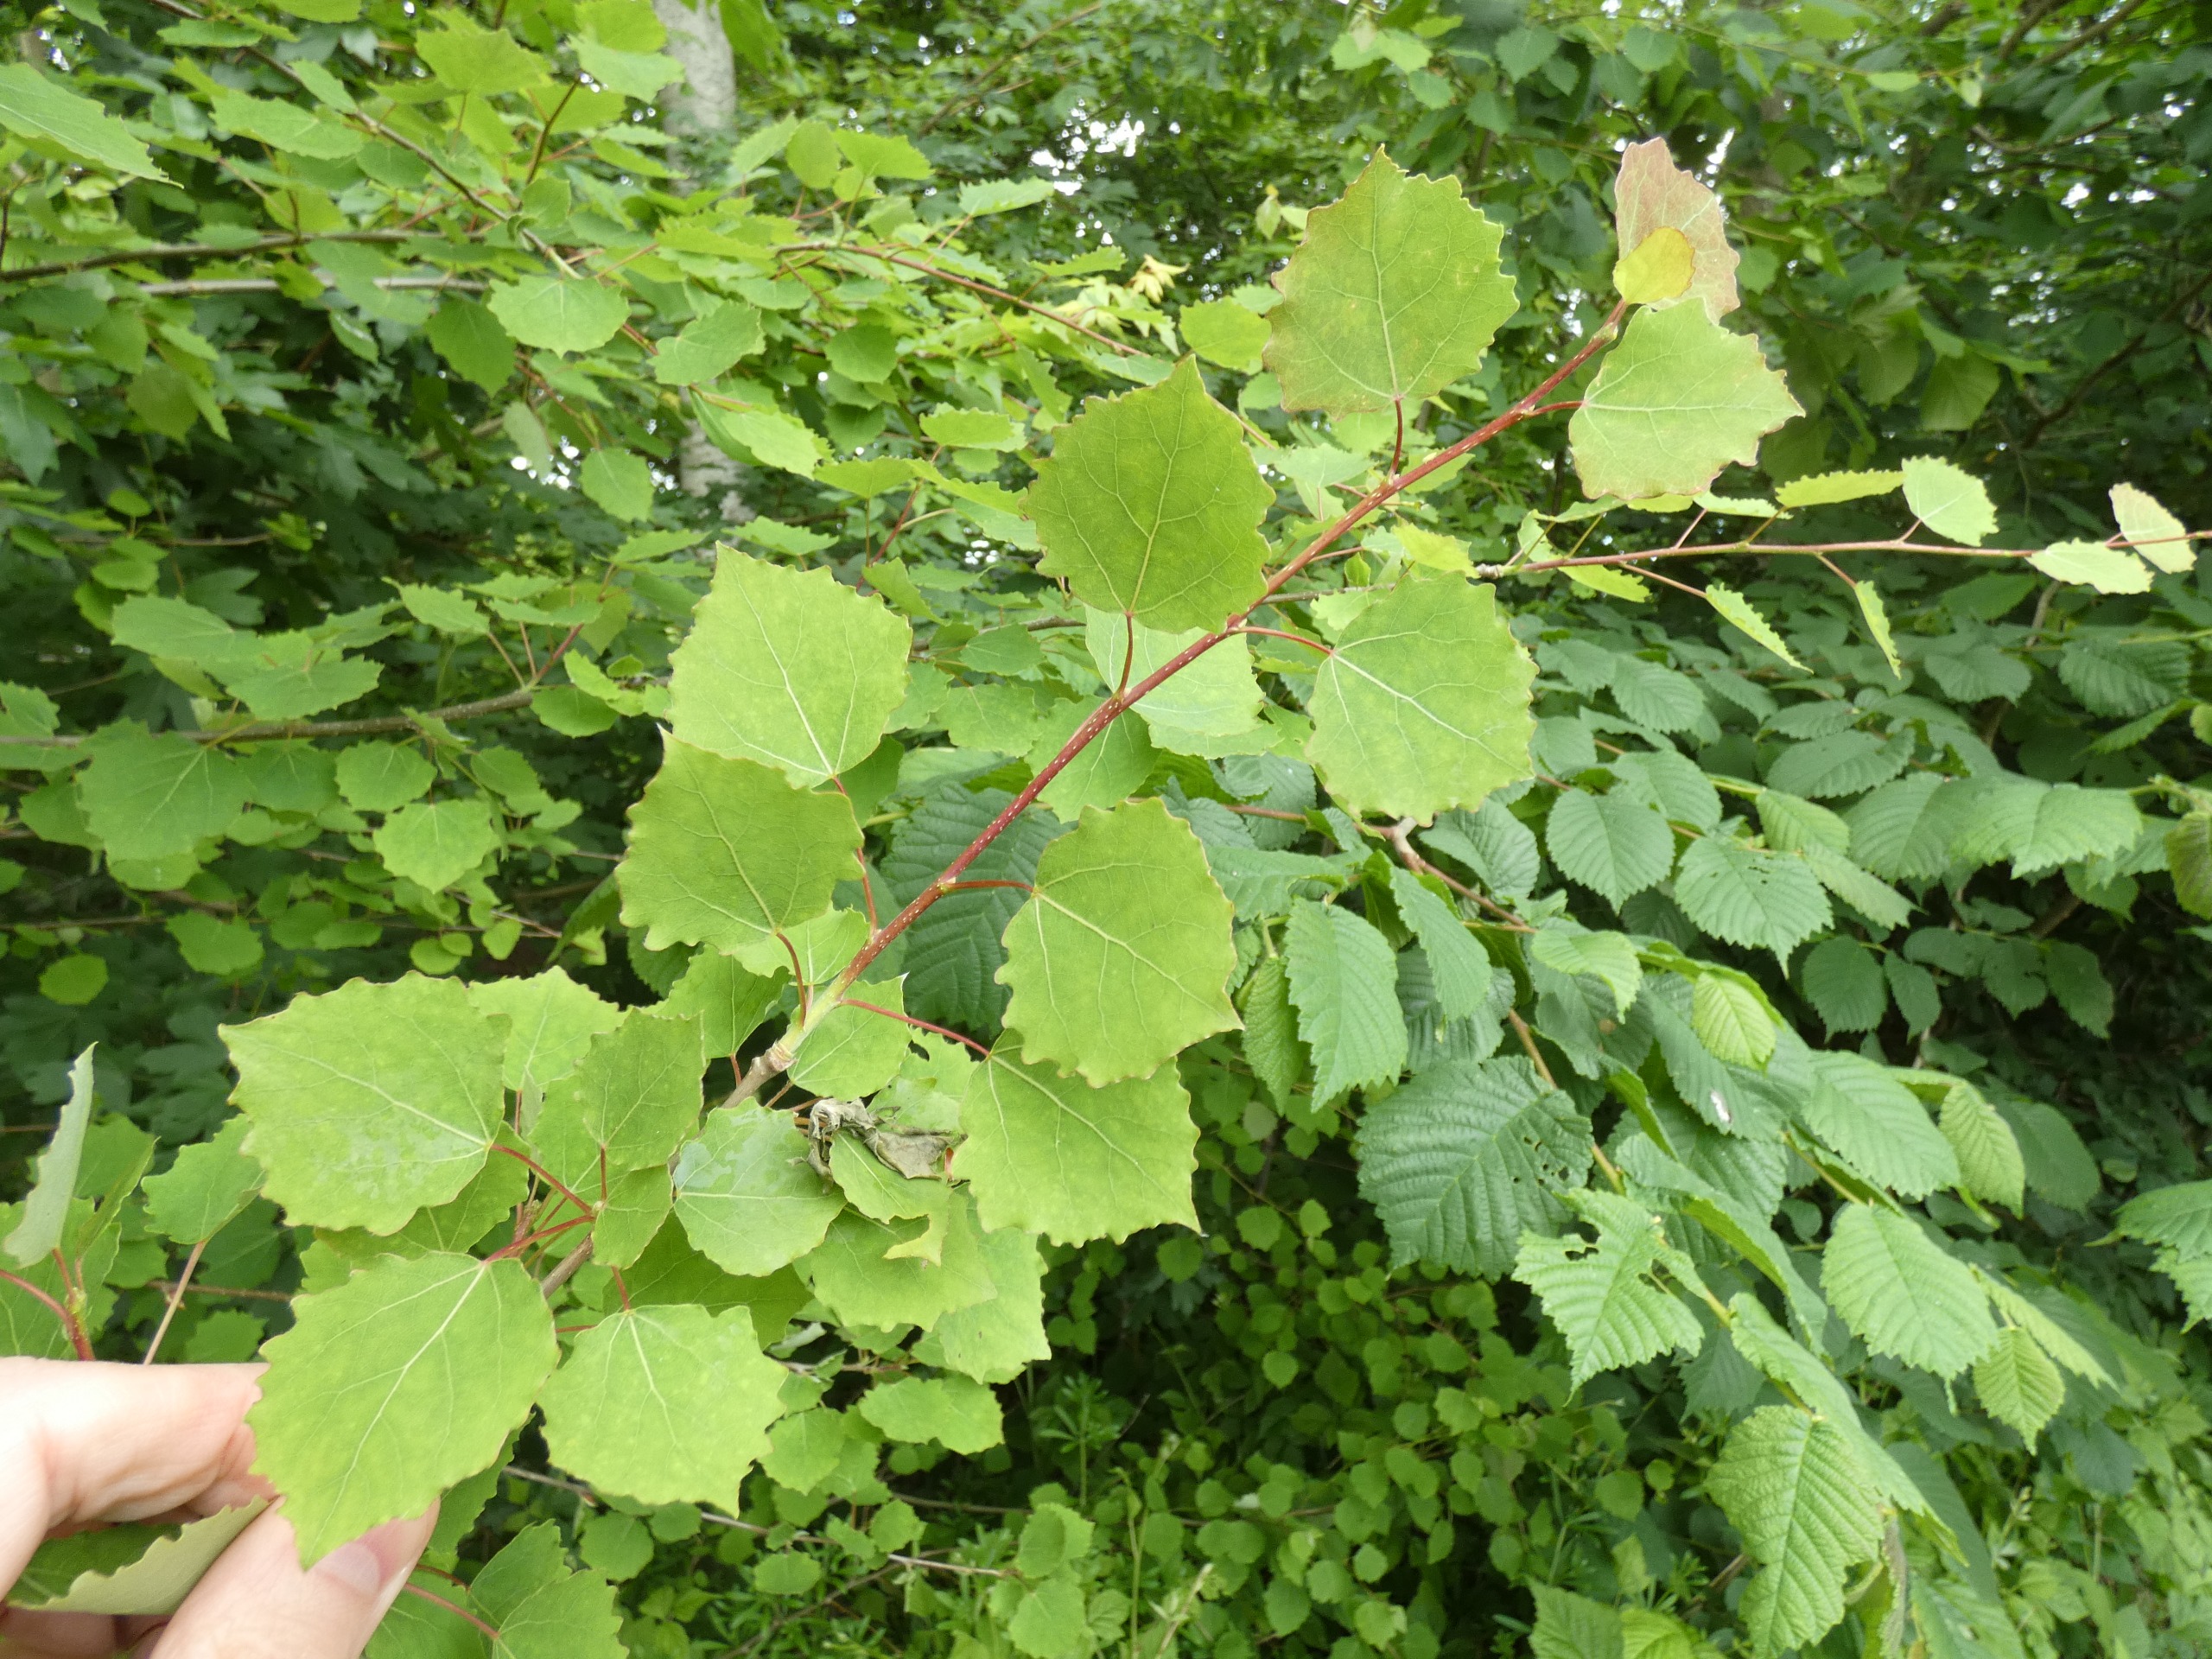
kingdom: Plantae
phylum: Tracheophyta
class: Magnoliopsida
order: Malpighiales
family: Salicaceae
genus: Populus
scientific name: Populus tremula
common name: Bævreasp
